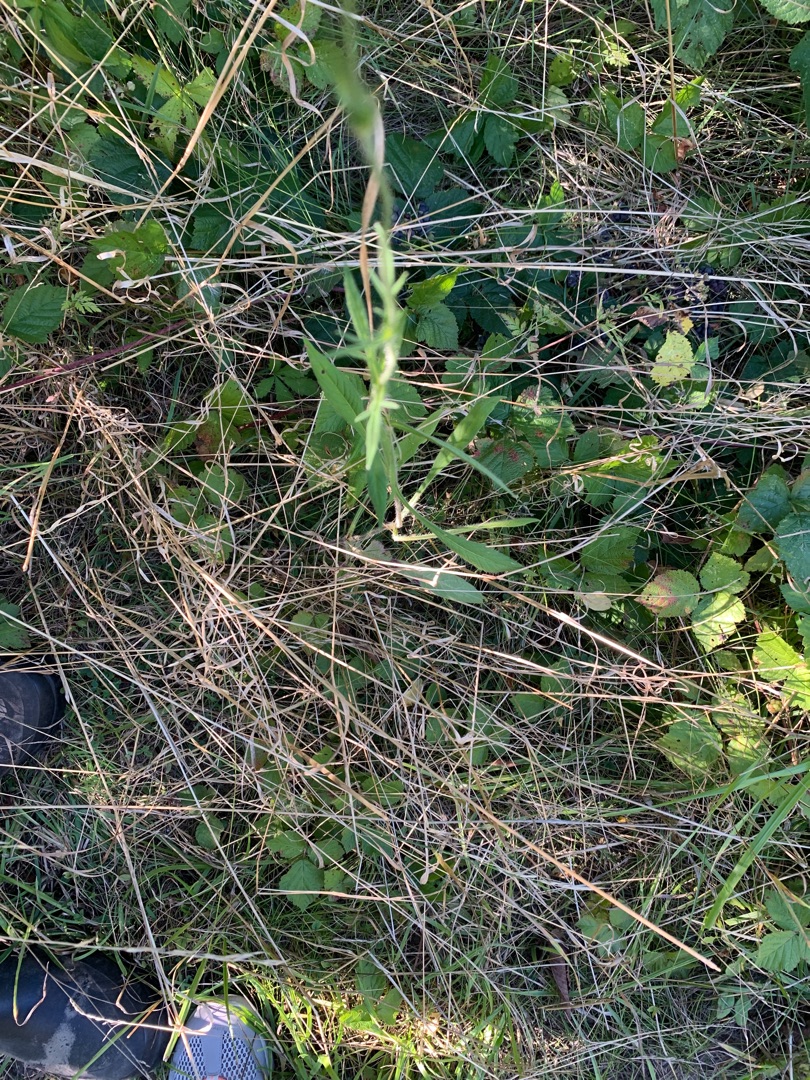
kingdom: Plantae
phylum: Tracheophyta
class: Magnoliopsida
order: Dipsacales
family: Caprifoliaceae
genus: Knautia
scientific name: Knautia arvensis
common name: Blåhat
